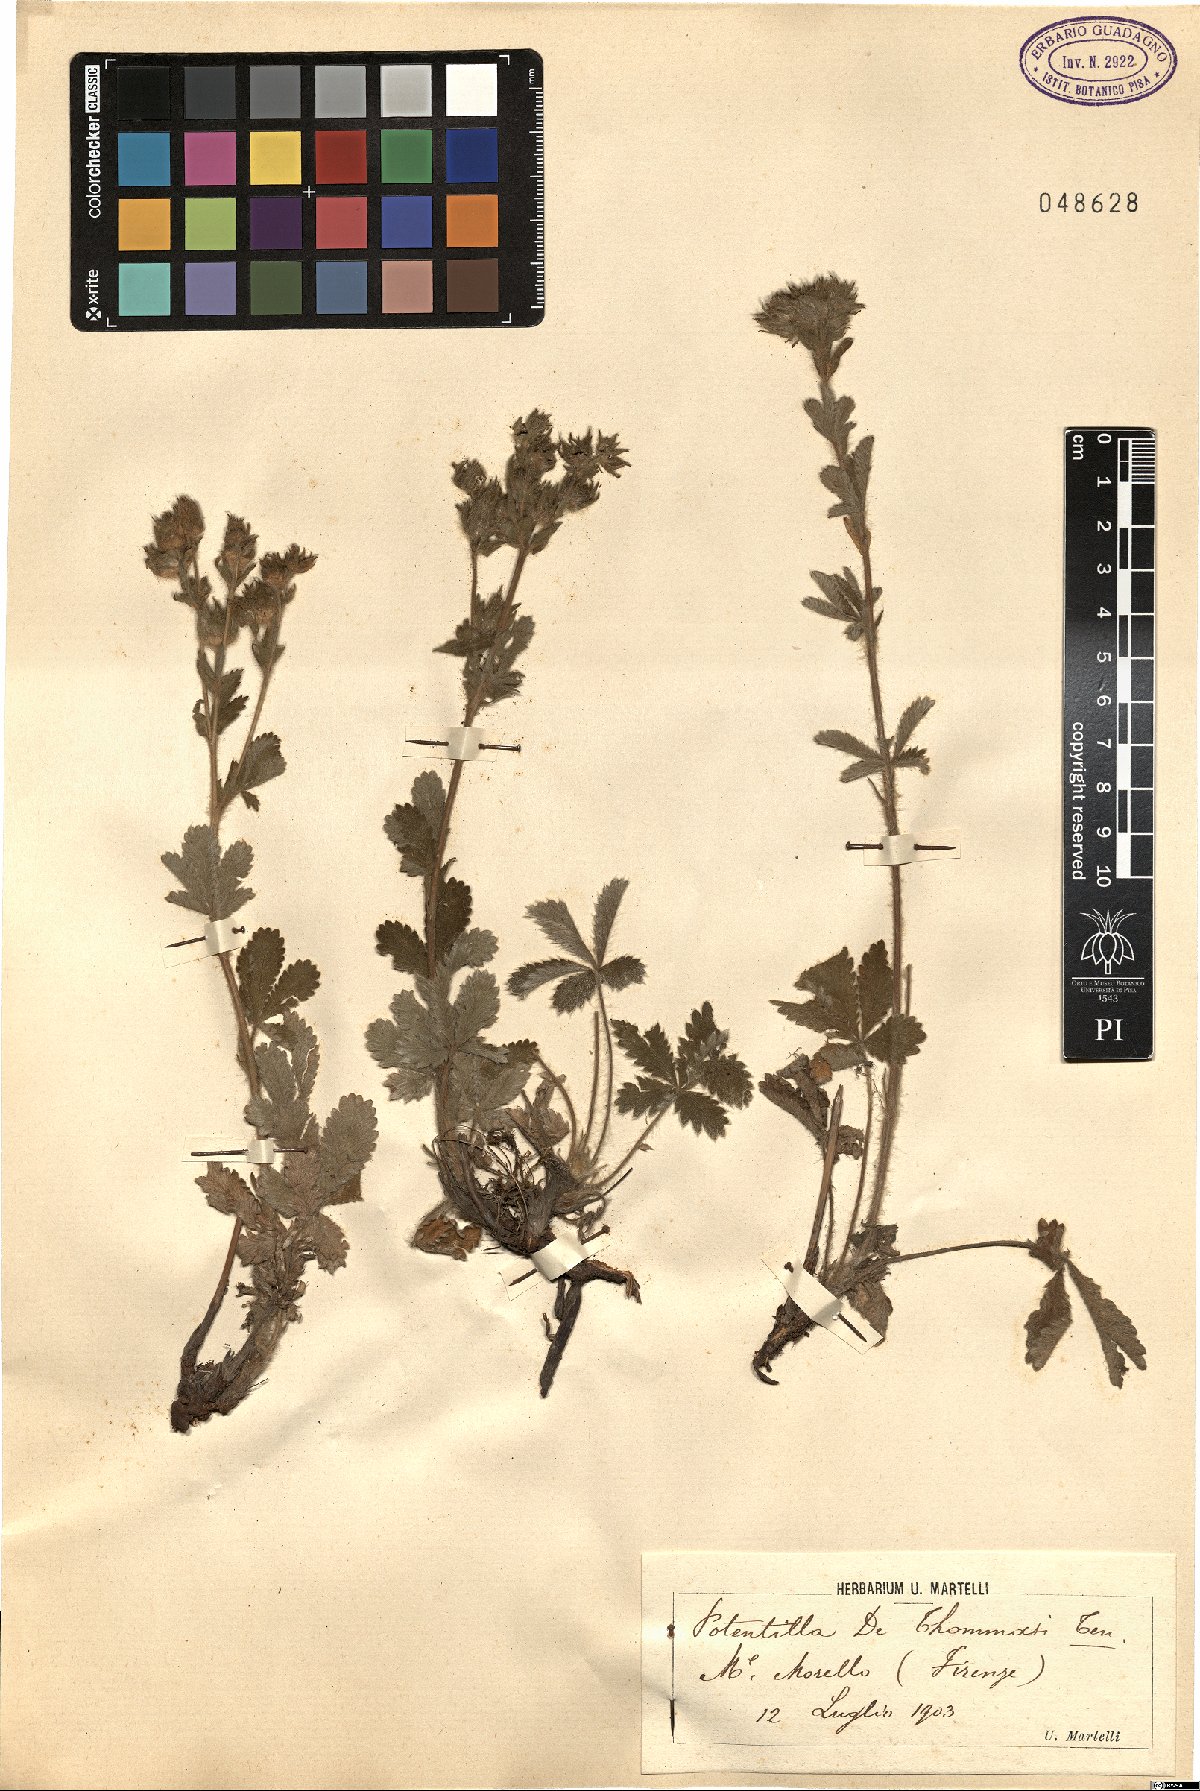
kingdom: Plantae
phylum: Tracheophyta
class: Magnoliopsida
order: Rosales
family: Rosaceae
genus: Potentilla
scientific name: Potentilla detommasii
